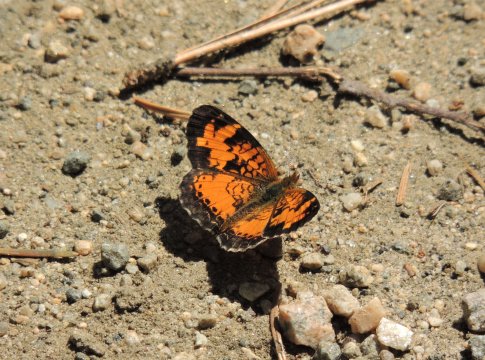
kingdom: Animalia
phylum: Arthropoda
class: Insecta
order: Lepidoptera
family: Nymphalidae
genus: Phyciodes
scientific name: Phyciodes tharos
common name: Northern Crescent
